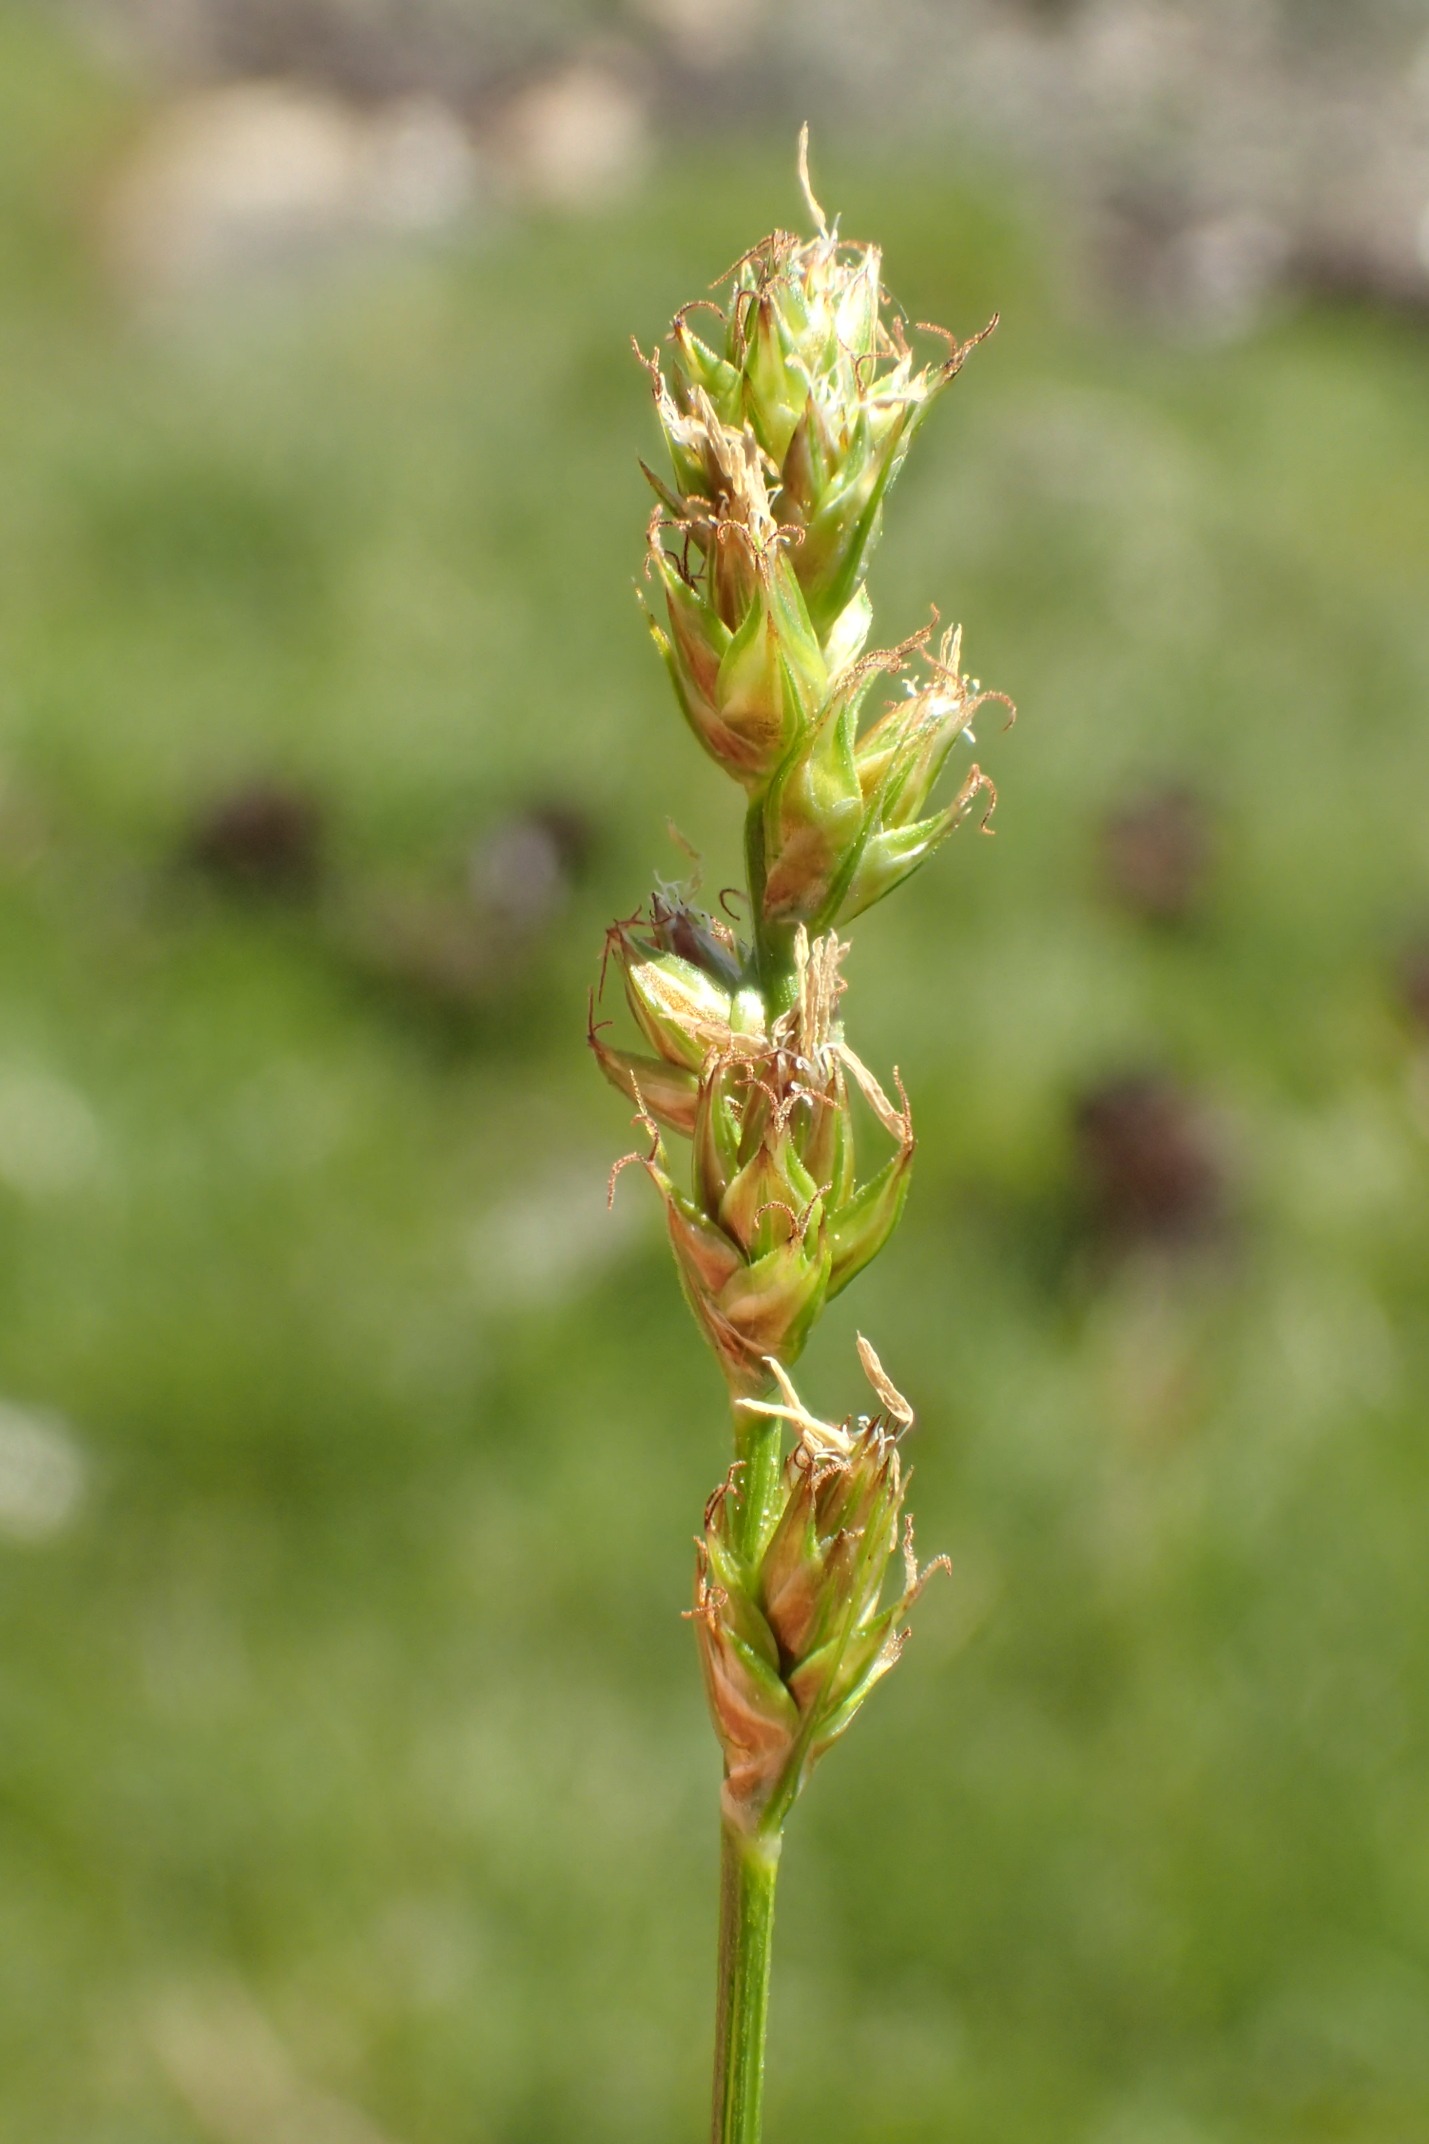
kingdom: Plantae
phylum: Tracheophyta
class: Liliopsida
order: Poales
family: Cyperaceae
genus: Carex
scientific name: Carex pairae
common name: Pigget star
